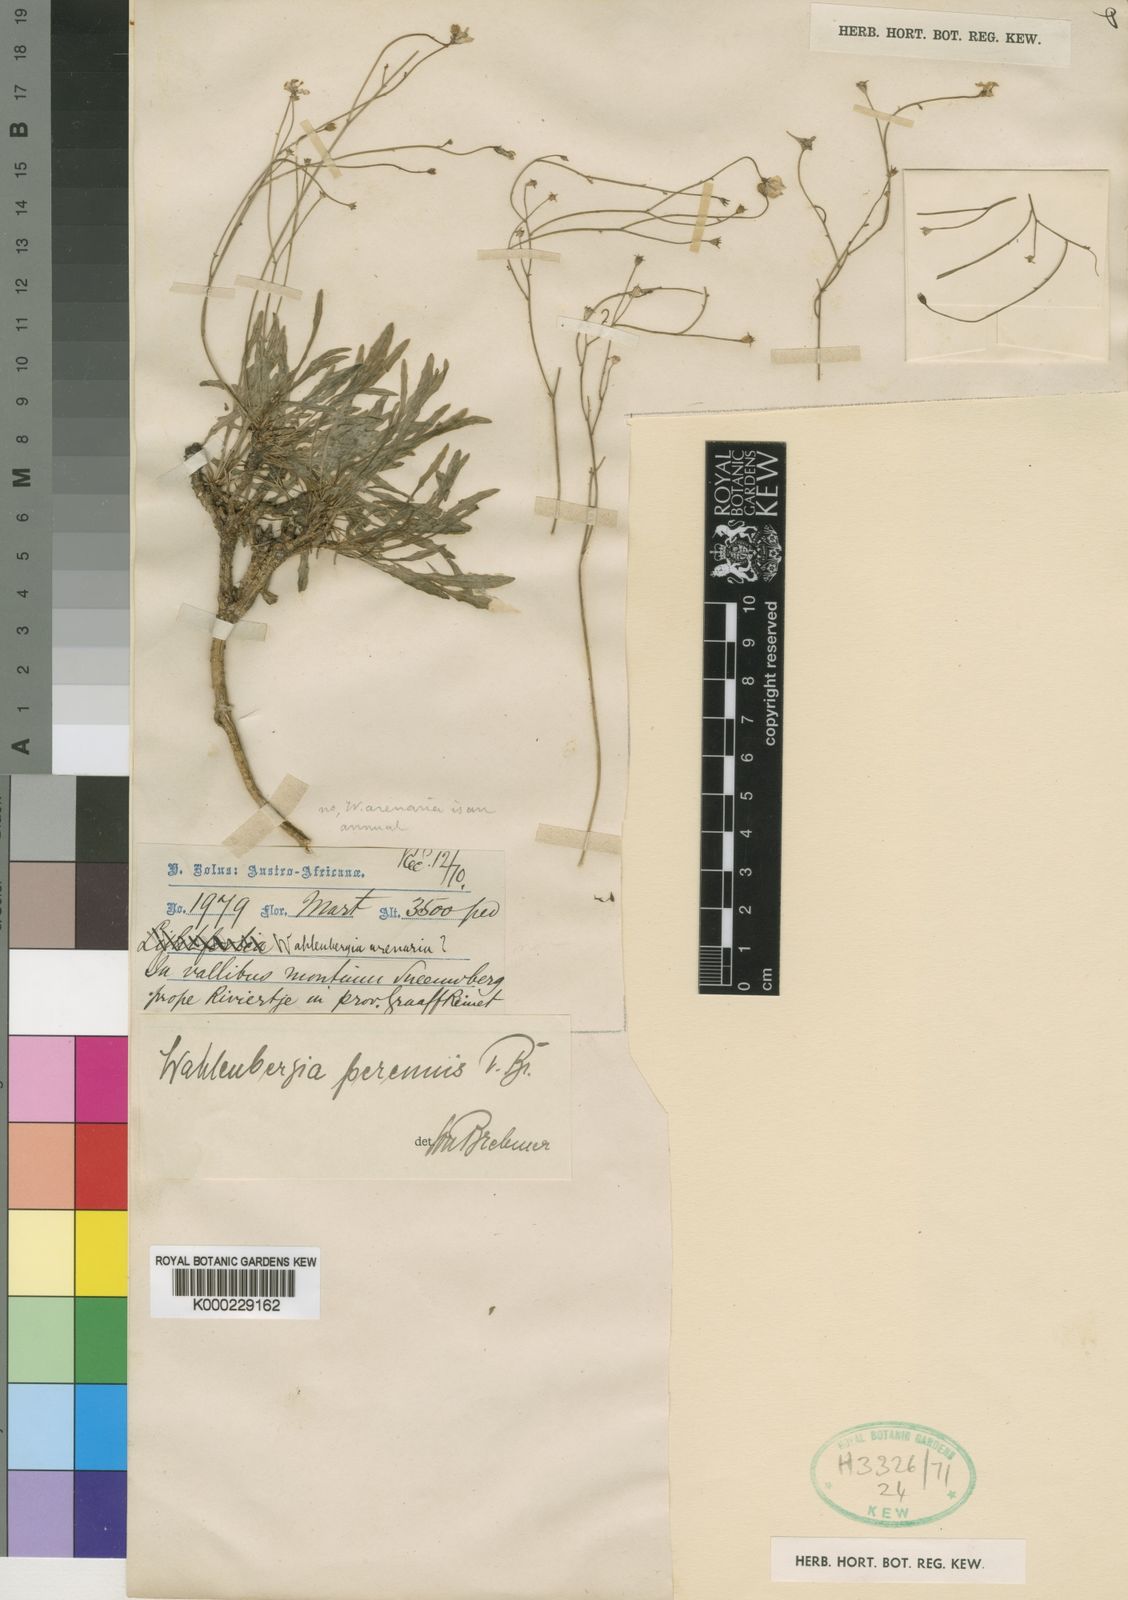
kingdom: Plantae
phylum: Tracheophyta
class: Magnoliopsida
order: Asterales
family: Campanulaceae
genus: Wahlenbergia
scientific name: Wahlenbergia androsacea
